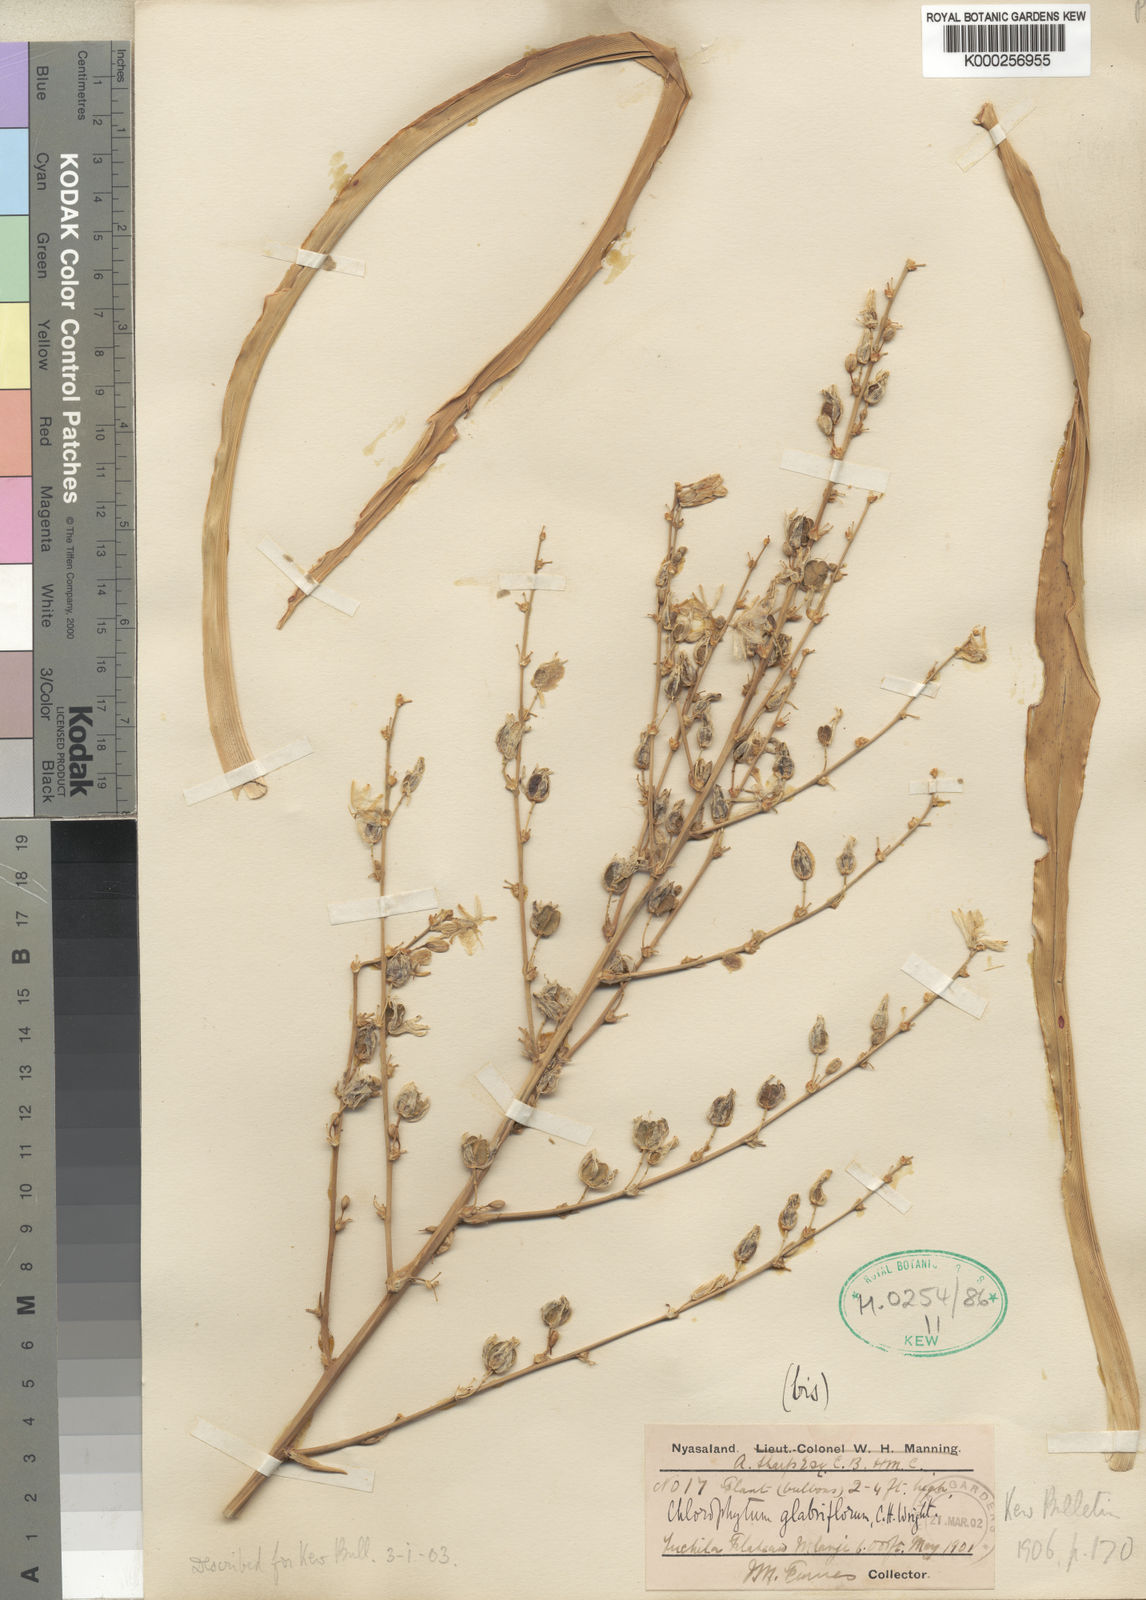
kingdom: Plantae
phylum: Tracheophyta
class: Liliopsida
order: Asparagales
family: Asparagaceae
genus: Chlorophytum
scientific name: Chlorophytum nyasae
